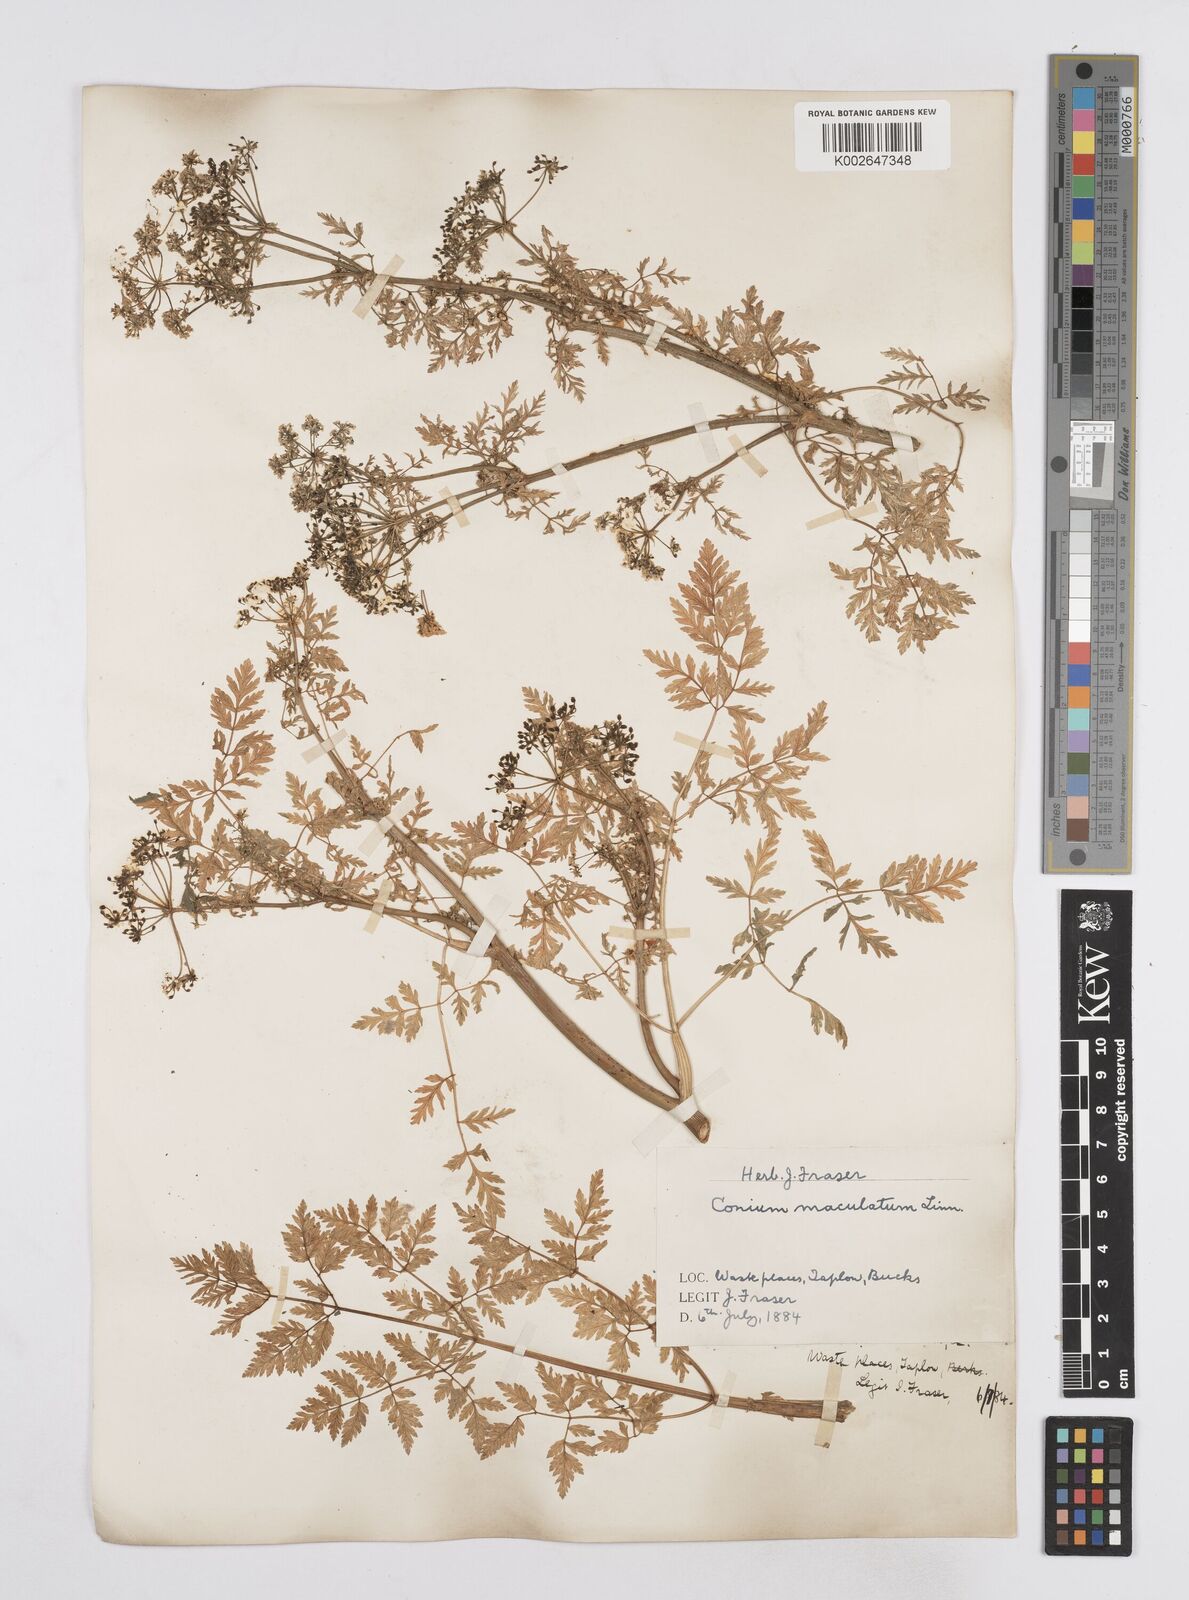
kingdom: Plantae
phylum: Tracheophyta
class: Magnoliopsida
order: Apiales
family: Apiaceae
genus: Conium
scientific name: Conium maculatum
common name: Hemlock
